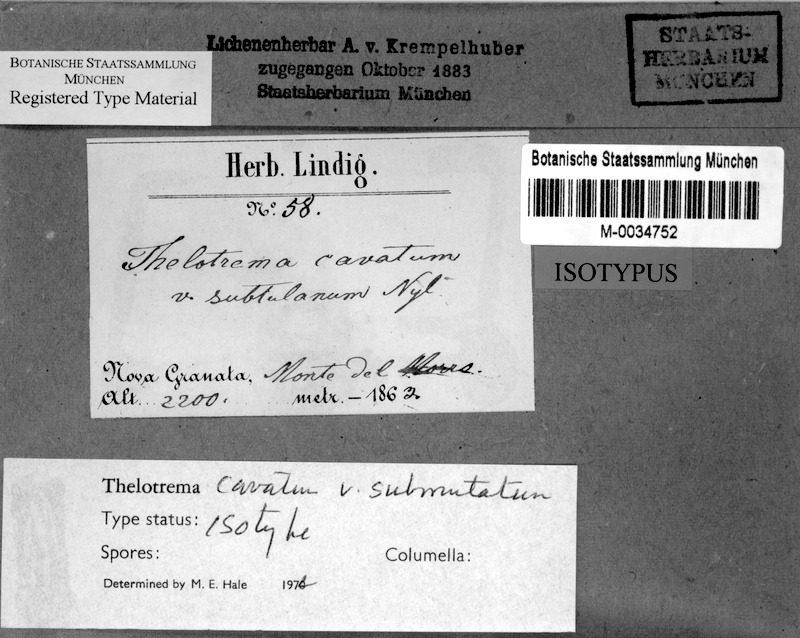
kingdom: Fungi
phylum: Ascomycota
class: Lecanoromycetes
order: Ostropales
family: Graphidaceae
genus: Ocellularia
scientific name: Ocellularia perforata
